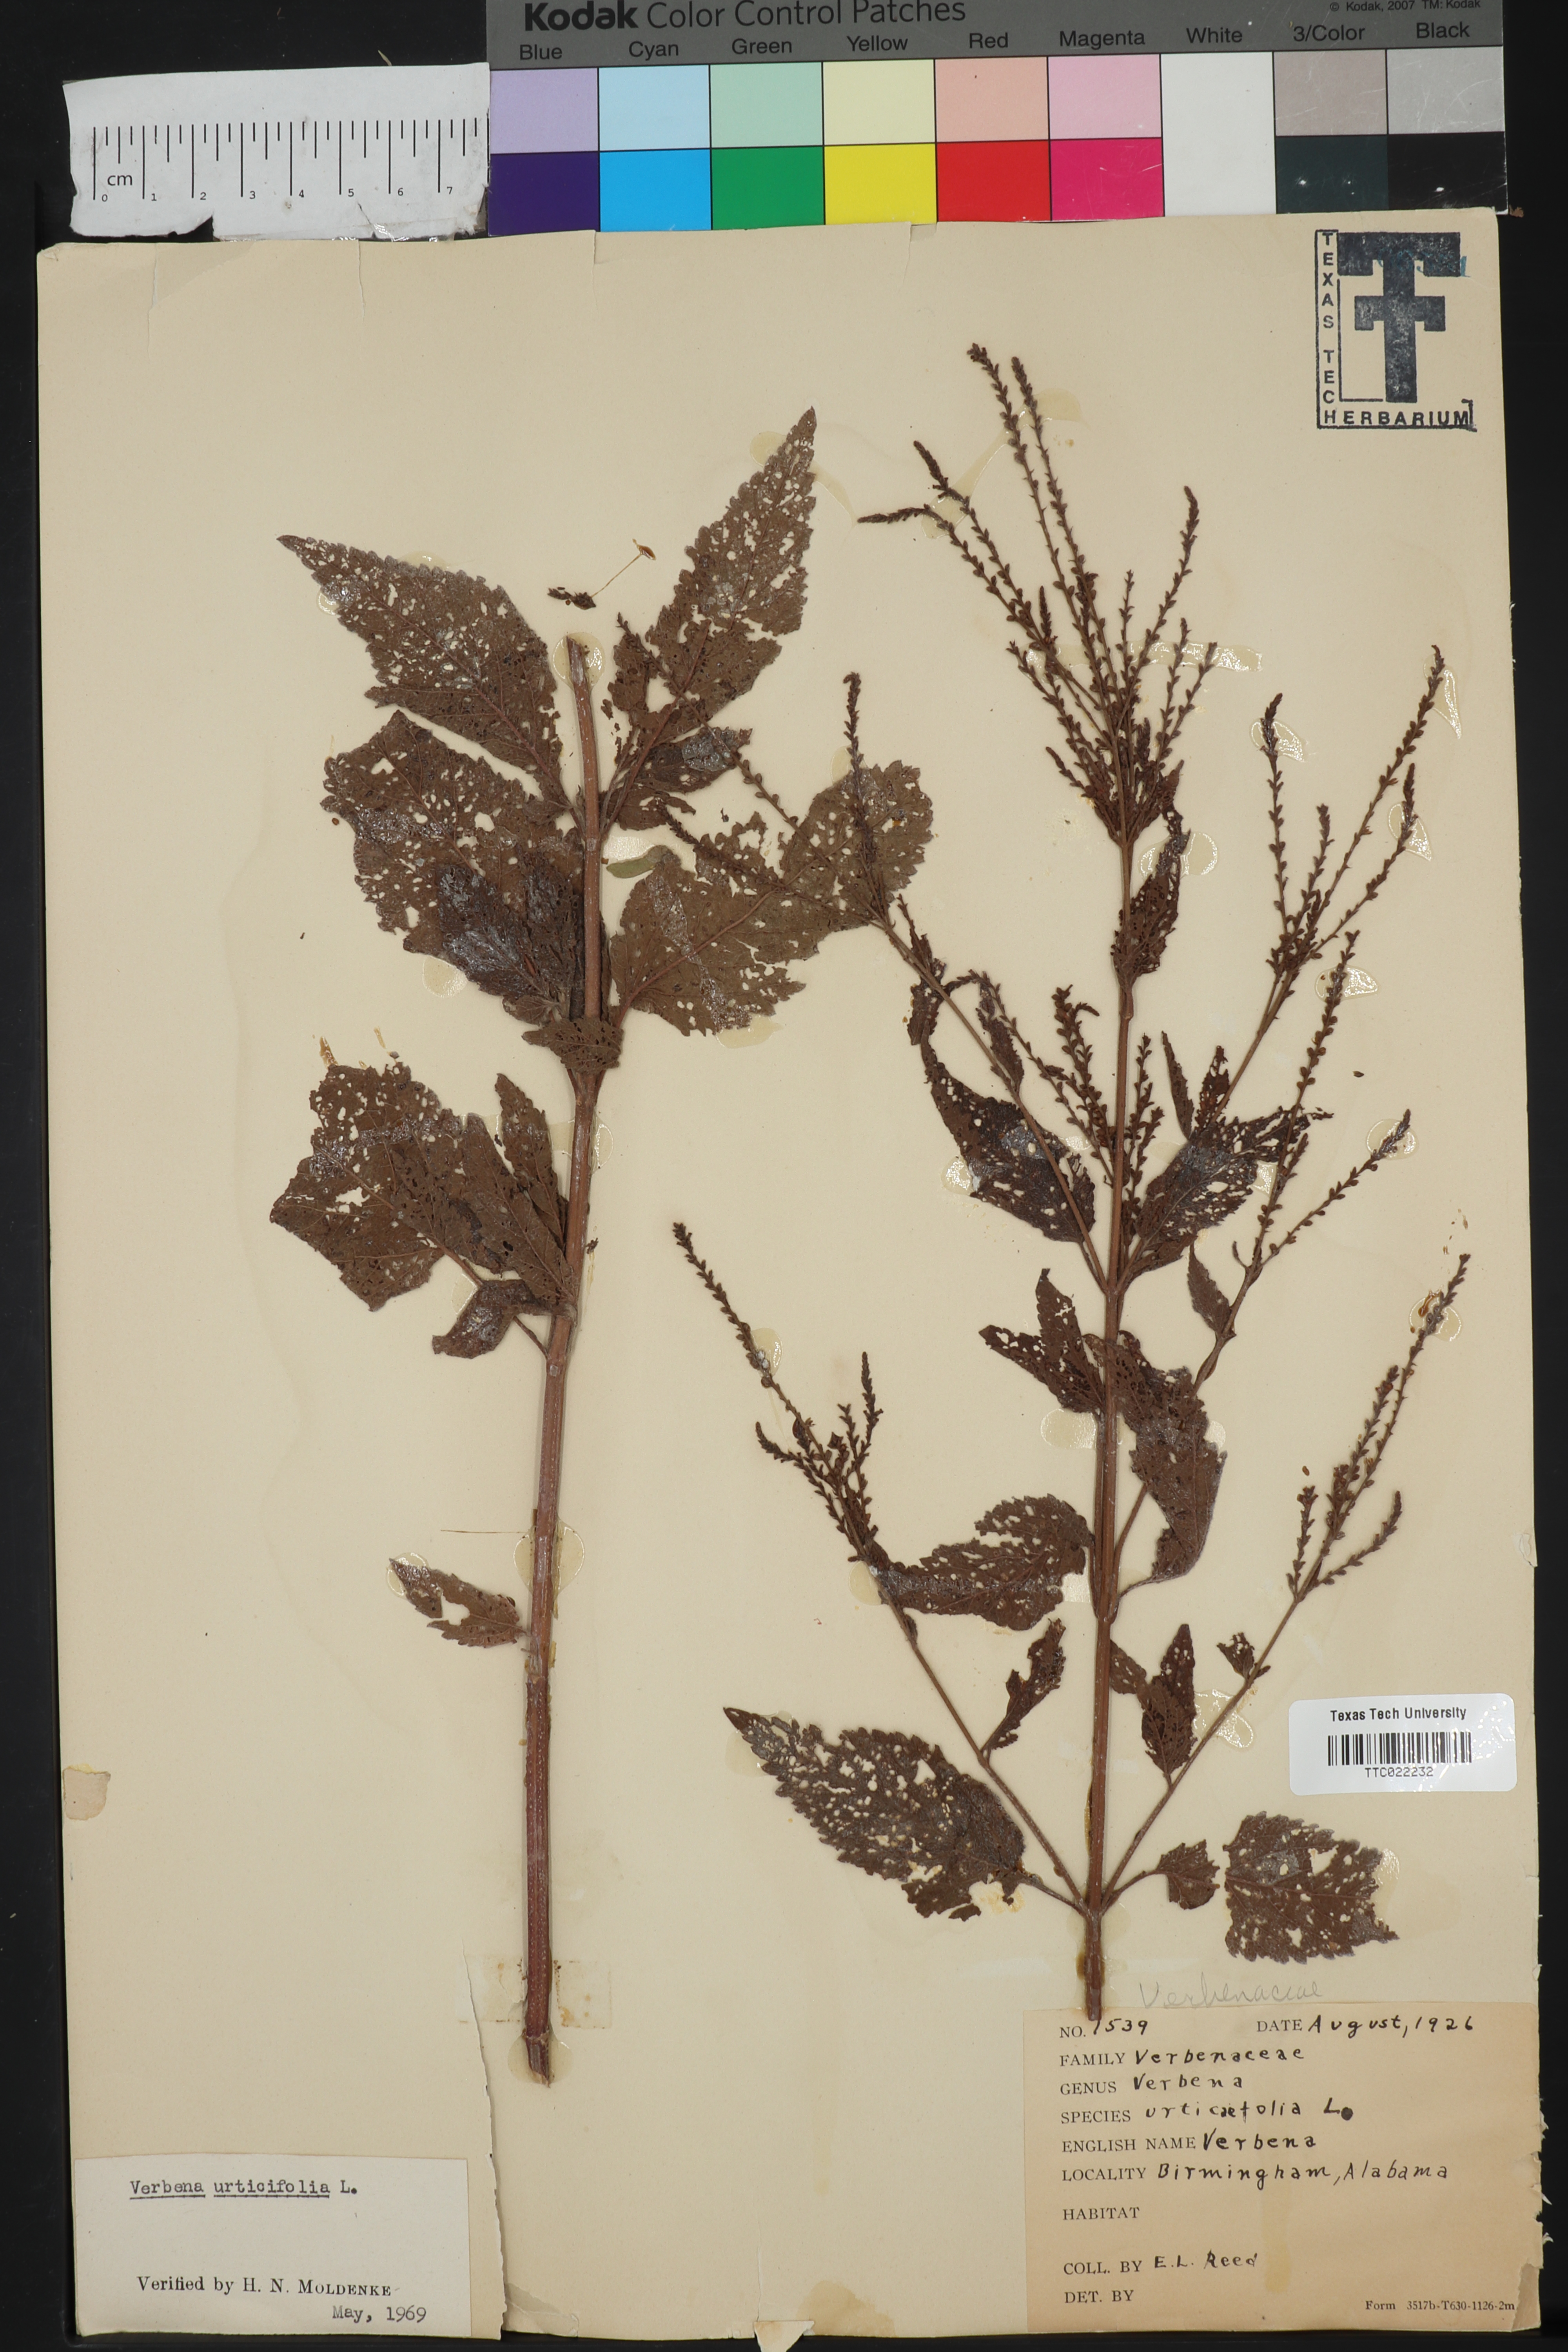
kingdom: Plantae
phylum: Tracheophyta
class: Magnoliopsida
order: Lamiales
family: Verbenaceae
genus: Verbena
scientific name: Verbena urticifolia
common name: Nettle-leaved vervain
